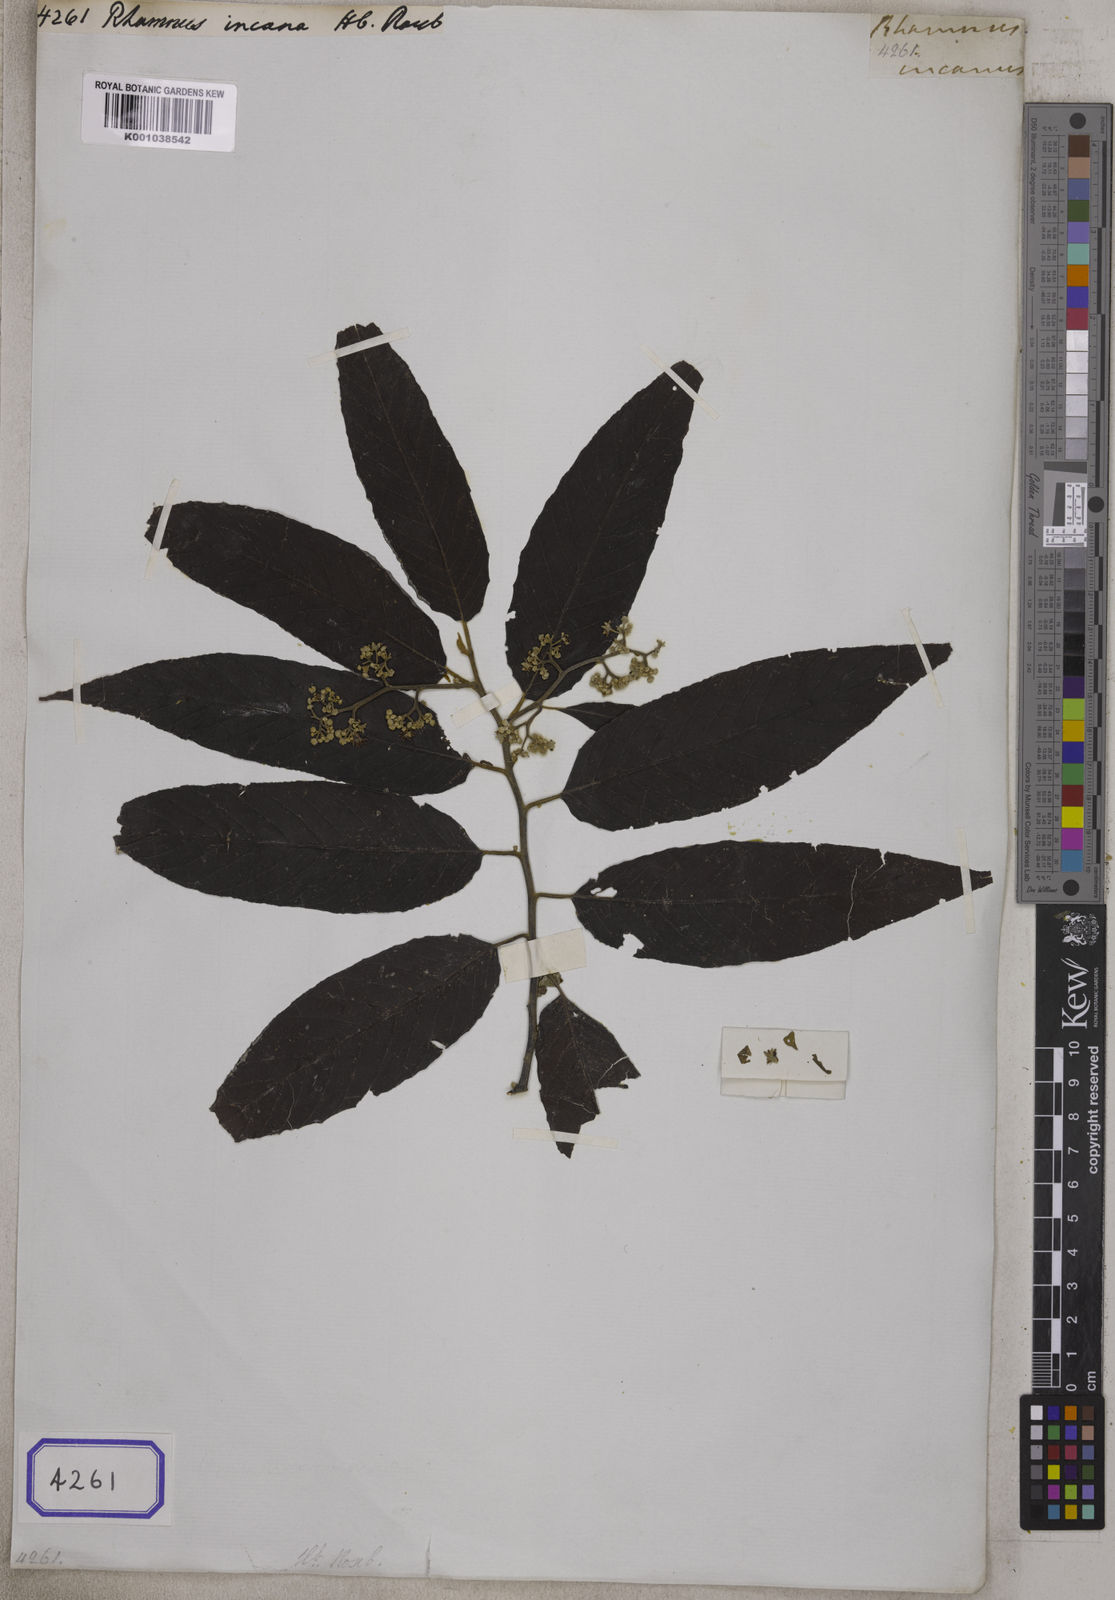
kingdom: Plantae
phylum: Tracheophyta
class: Magnoliopsida
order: Rosales
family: Rhamnaceae
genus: Alphitonia
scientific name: Alphitonia incana
